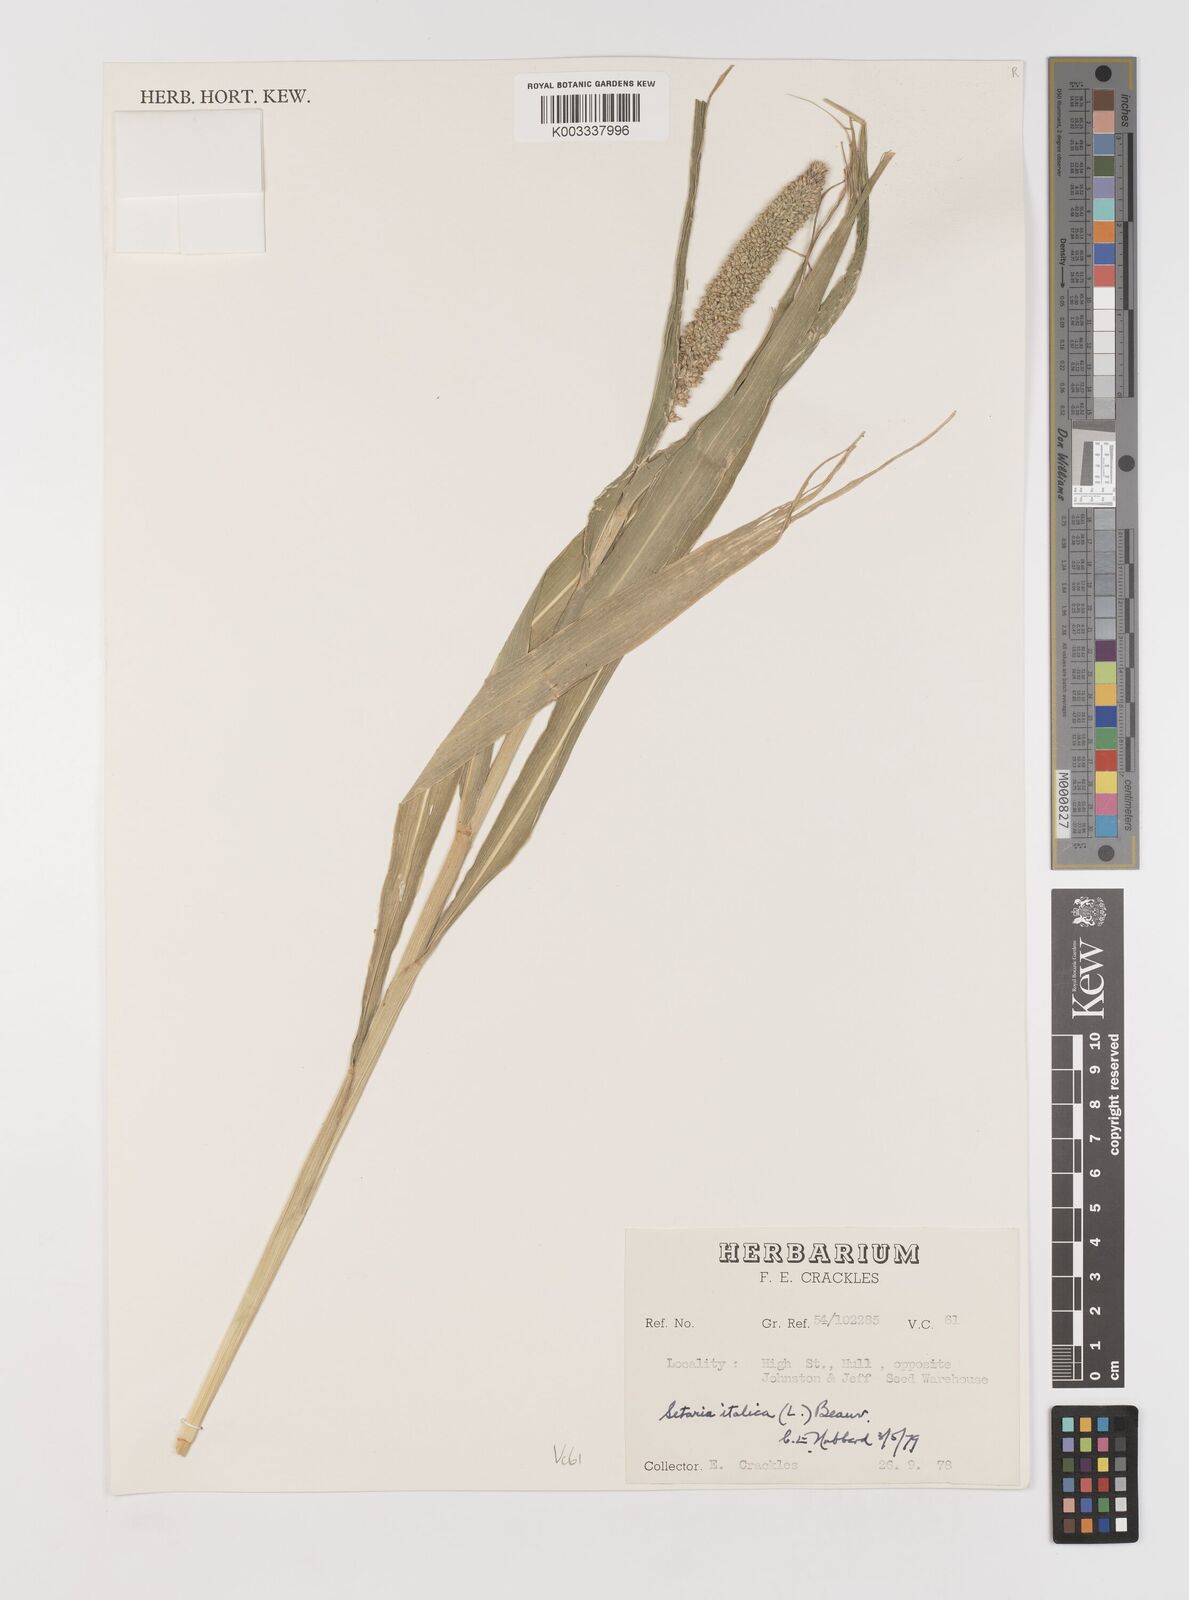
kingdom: Plantae
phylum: Tracheophyta
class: Liliopsida
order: Poales
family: Poaceae
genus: Setaria
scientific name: Setaria italica
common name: Foxtail bristle-grass
